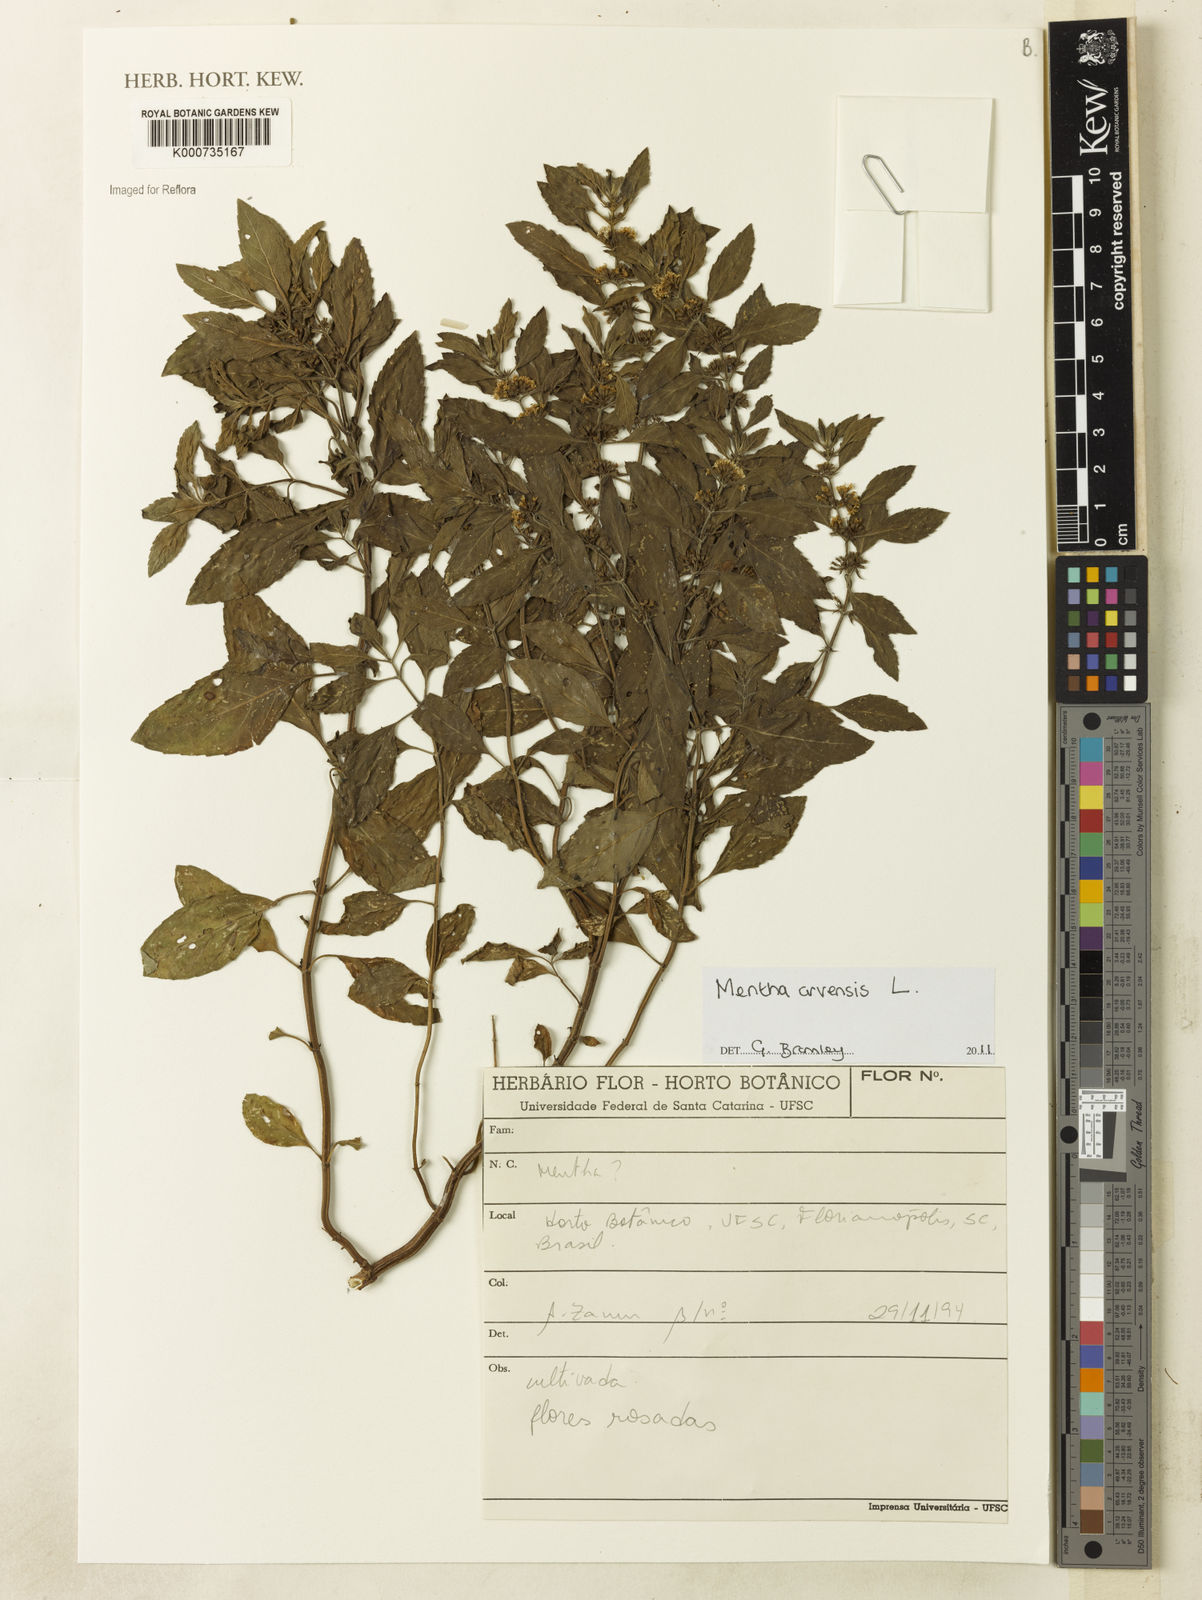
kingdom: Plantae
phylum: Tracheophyta
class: Magnoliopsida
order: Lamiales
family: Lamiaceae
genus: Mentha
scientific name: Mentha arvensis
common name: Corn mint
